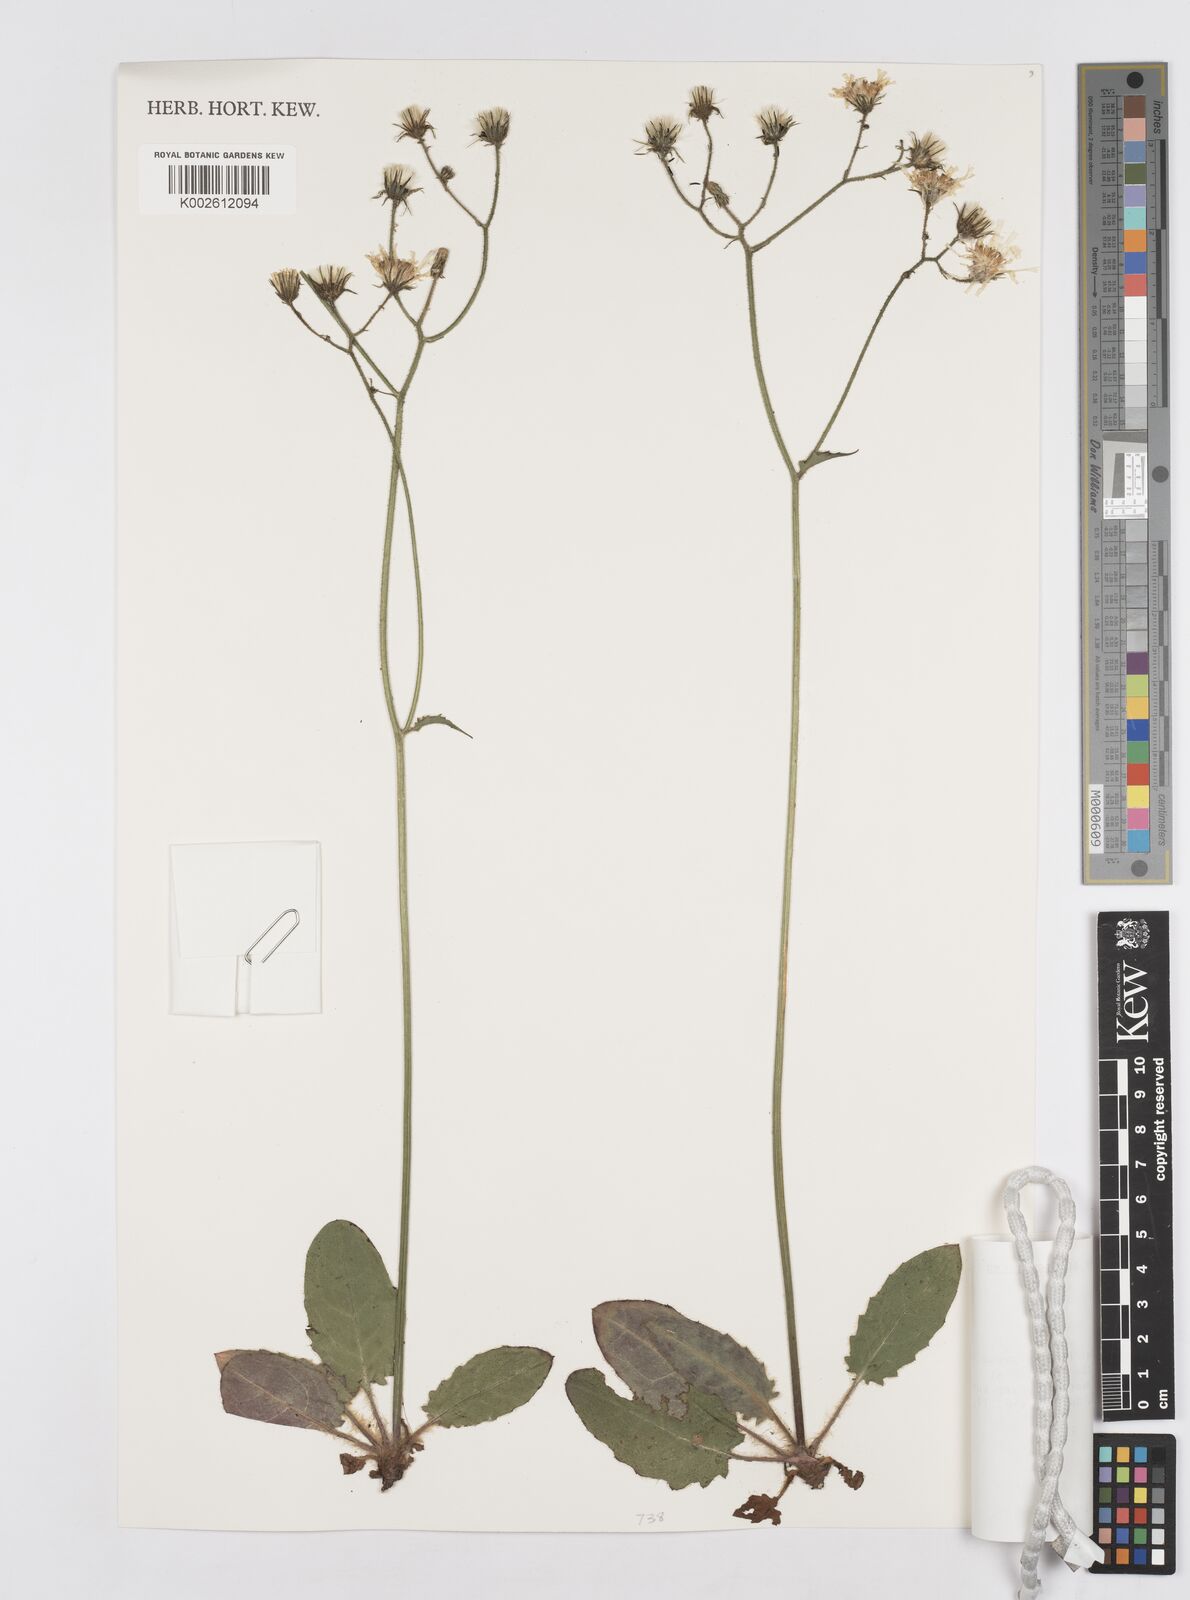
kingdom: Plantae
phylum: Tracheophyta
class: Magnoliopsida
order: Asterales
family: Asteraceae
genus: Hieracium
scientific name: Hieracium
